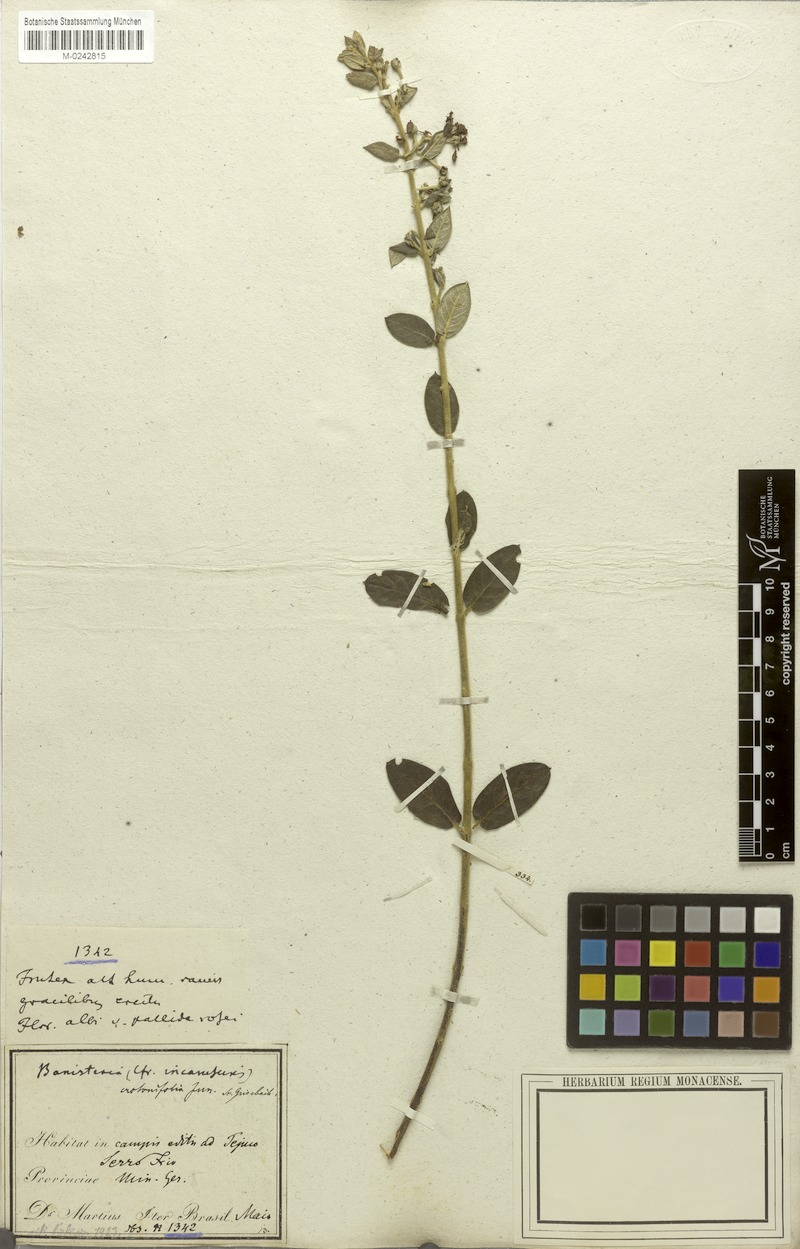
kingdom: Plantae
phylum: Tracheophyta
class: Magnoliopsida
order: Malpighiales
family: Malpighiaceae
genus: Banisteriopsis
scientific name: Banisteriopsis malifolia
